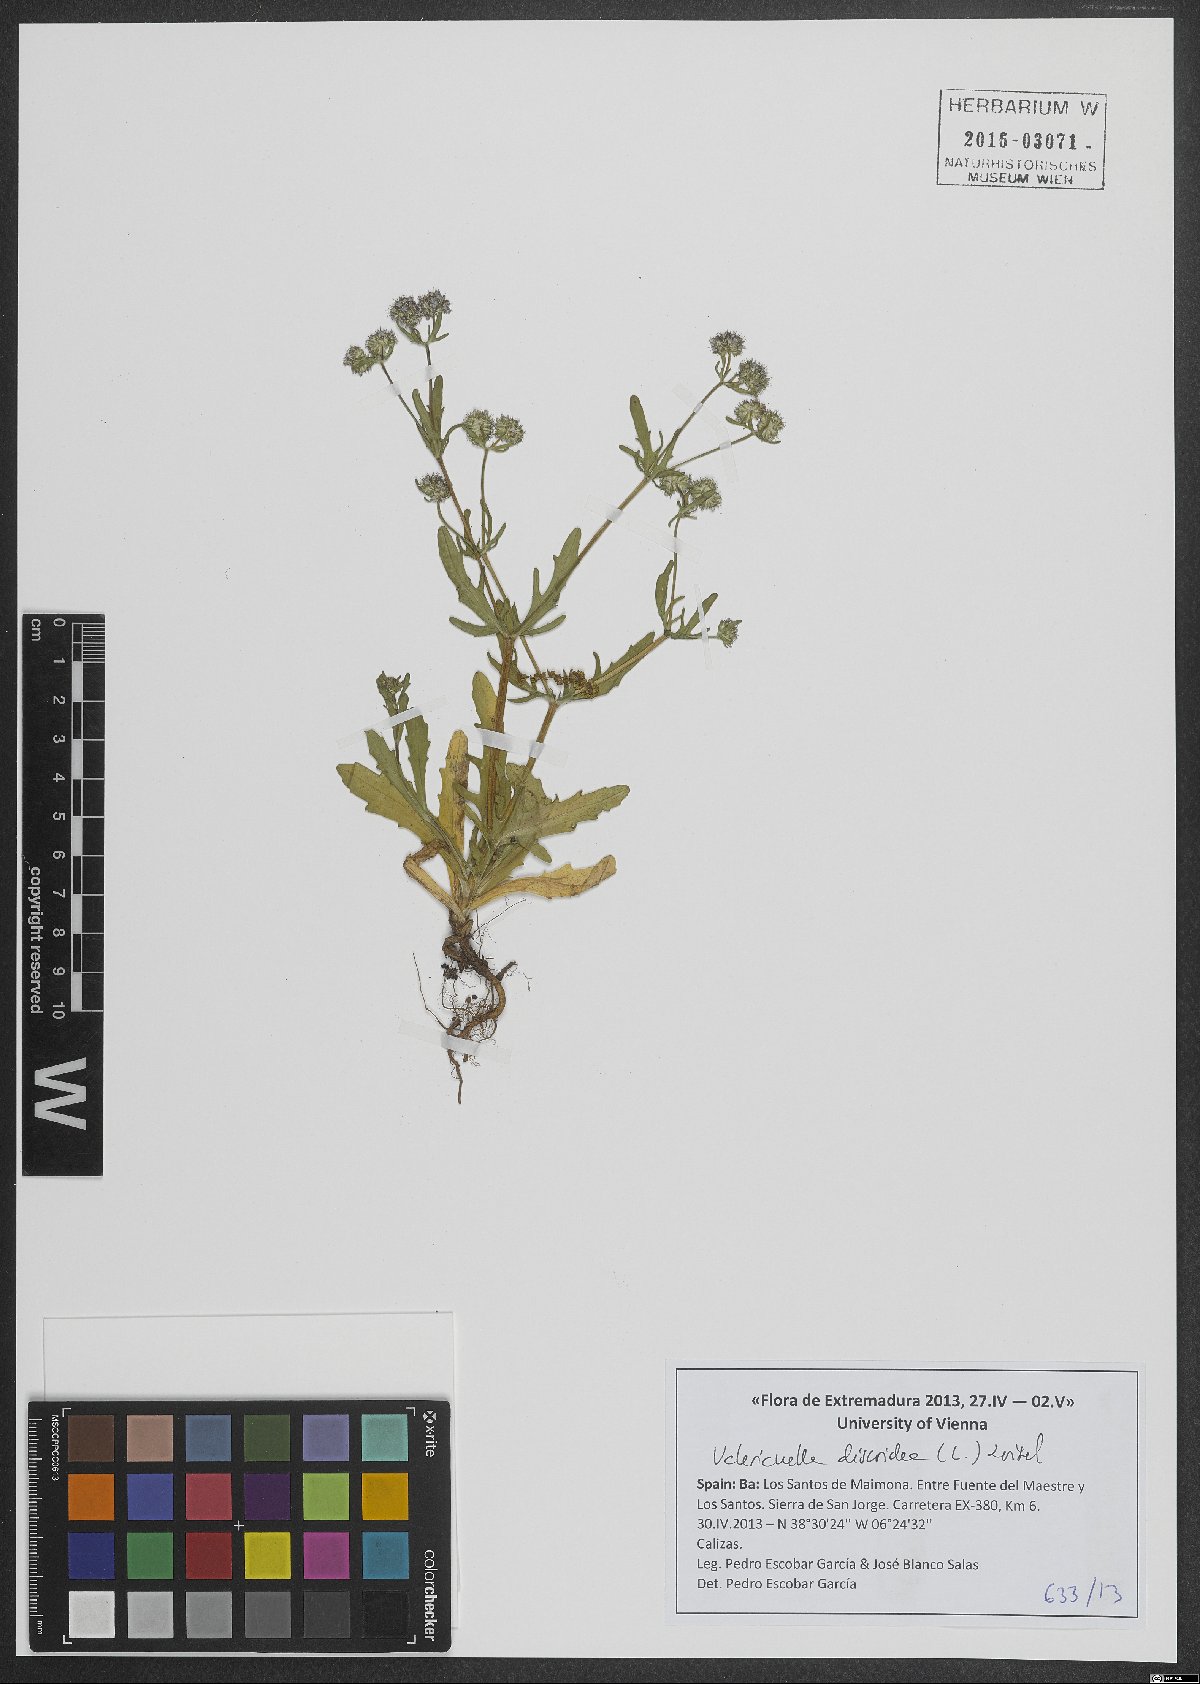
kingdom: Plantae
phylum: Tracheophyta
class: Magnoliopsida
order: Dipsacales
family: Caprifoliaceae
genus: Valerianella
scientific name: Valerianella discoidea
